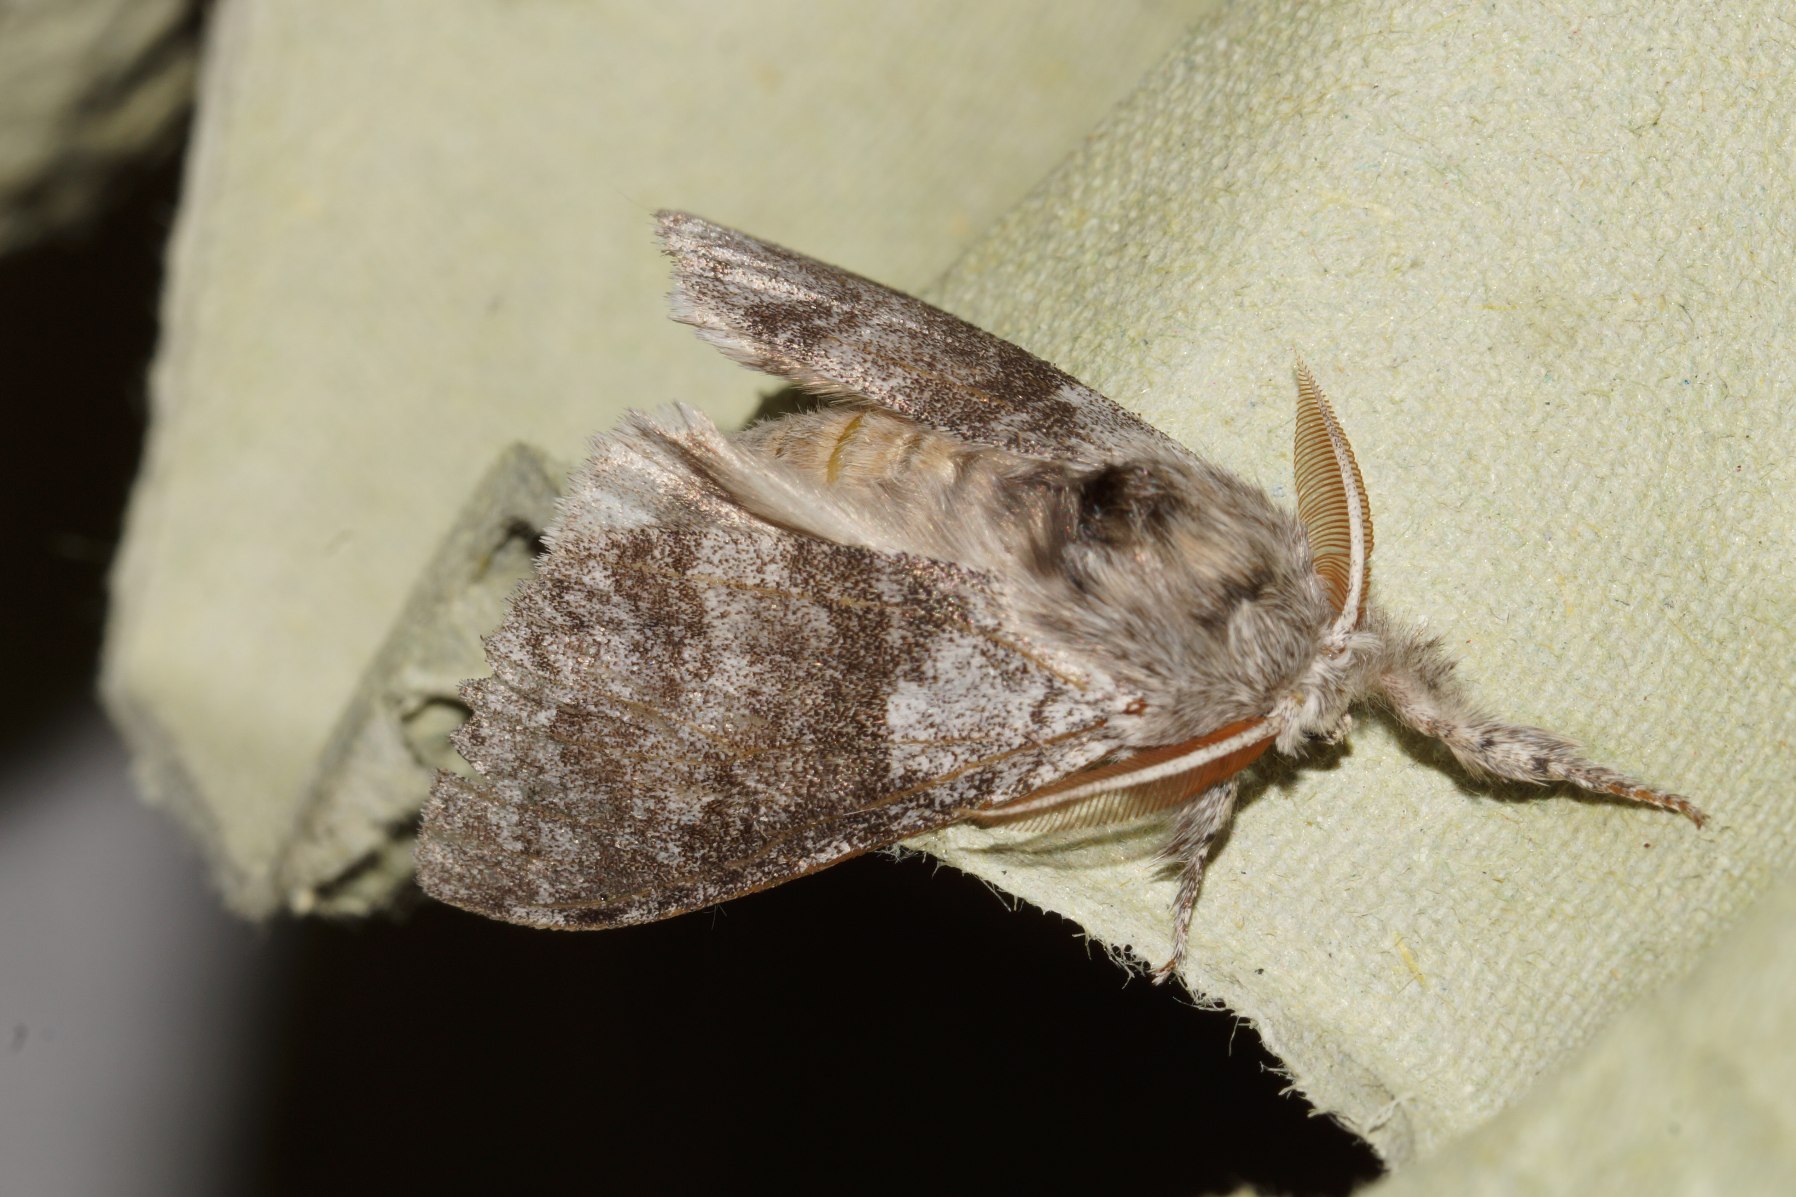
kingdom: Animalia
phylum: Arthropoda
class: Insecta
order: Lepidoptera
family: Erebidae
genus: Calliteara
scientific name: Calliteara pudibunda
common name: Bøgenonne
